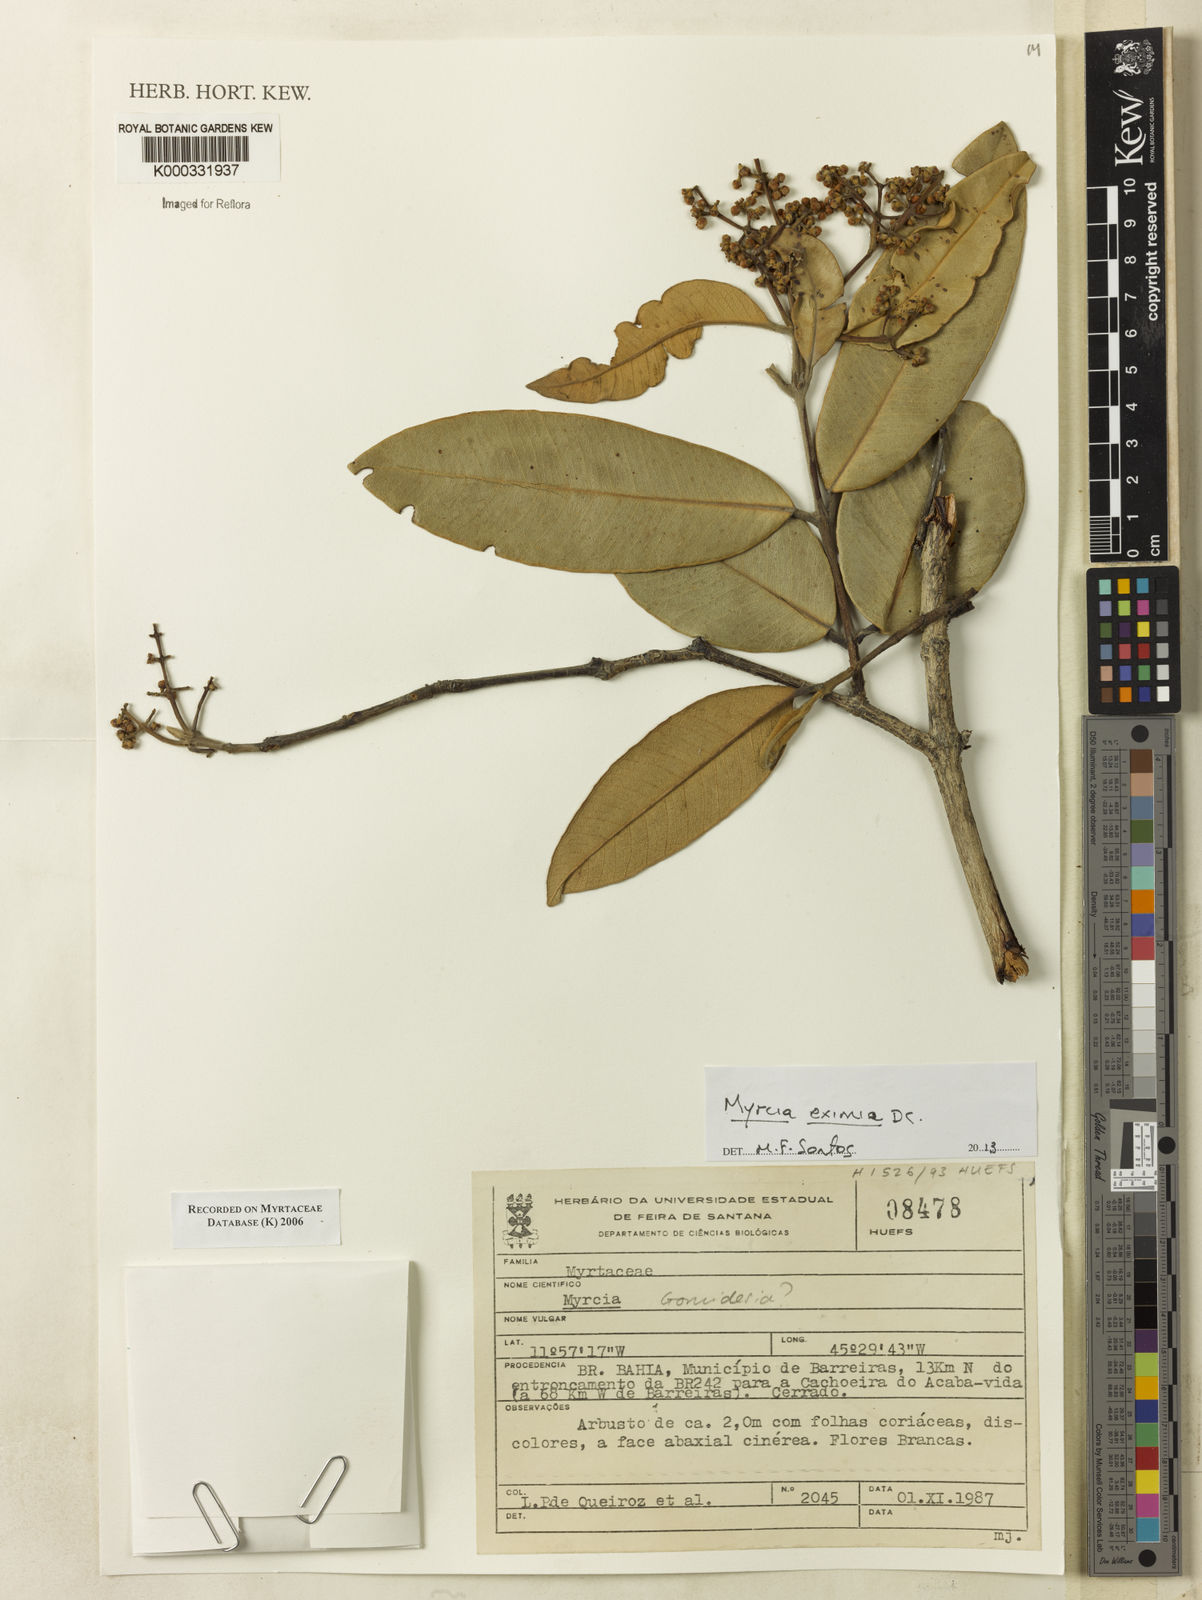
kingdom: Plantae
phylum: Tracheophyta
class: Magnoliopsida
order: Myrtales
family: Myrtaceae
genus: Myrcia
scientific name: Myrcia
